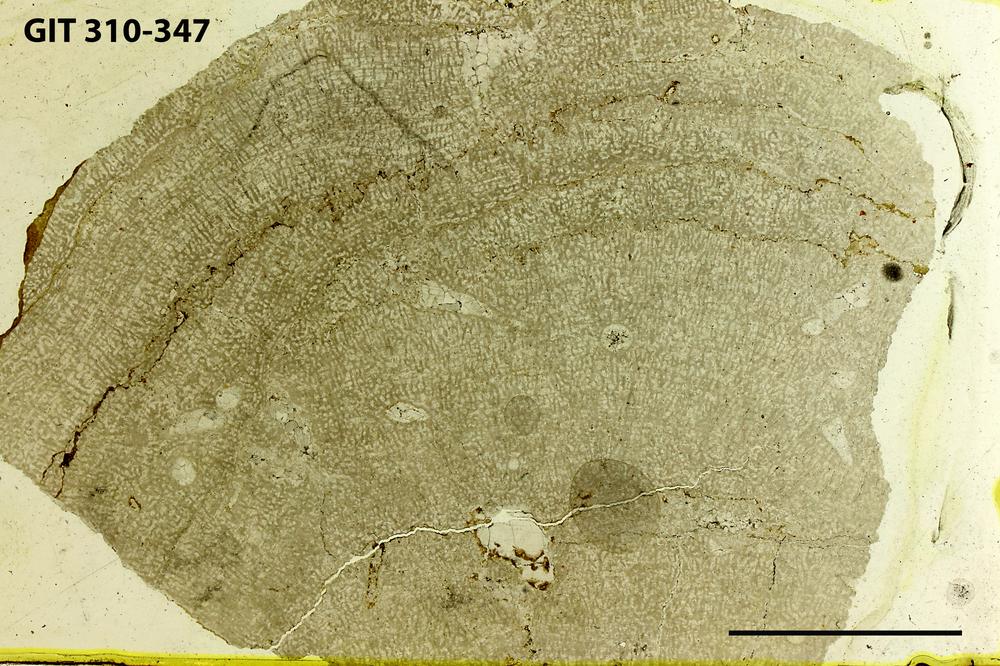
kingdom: Animalia
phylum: Porifera
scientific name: Porifera
